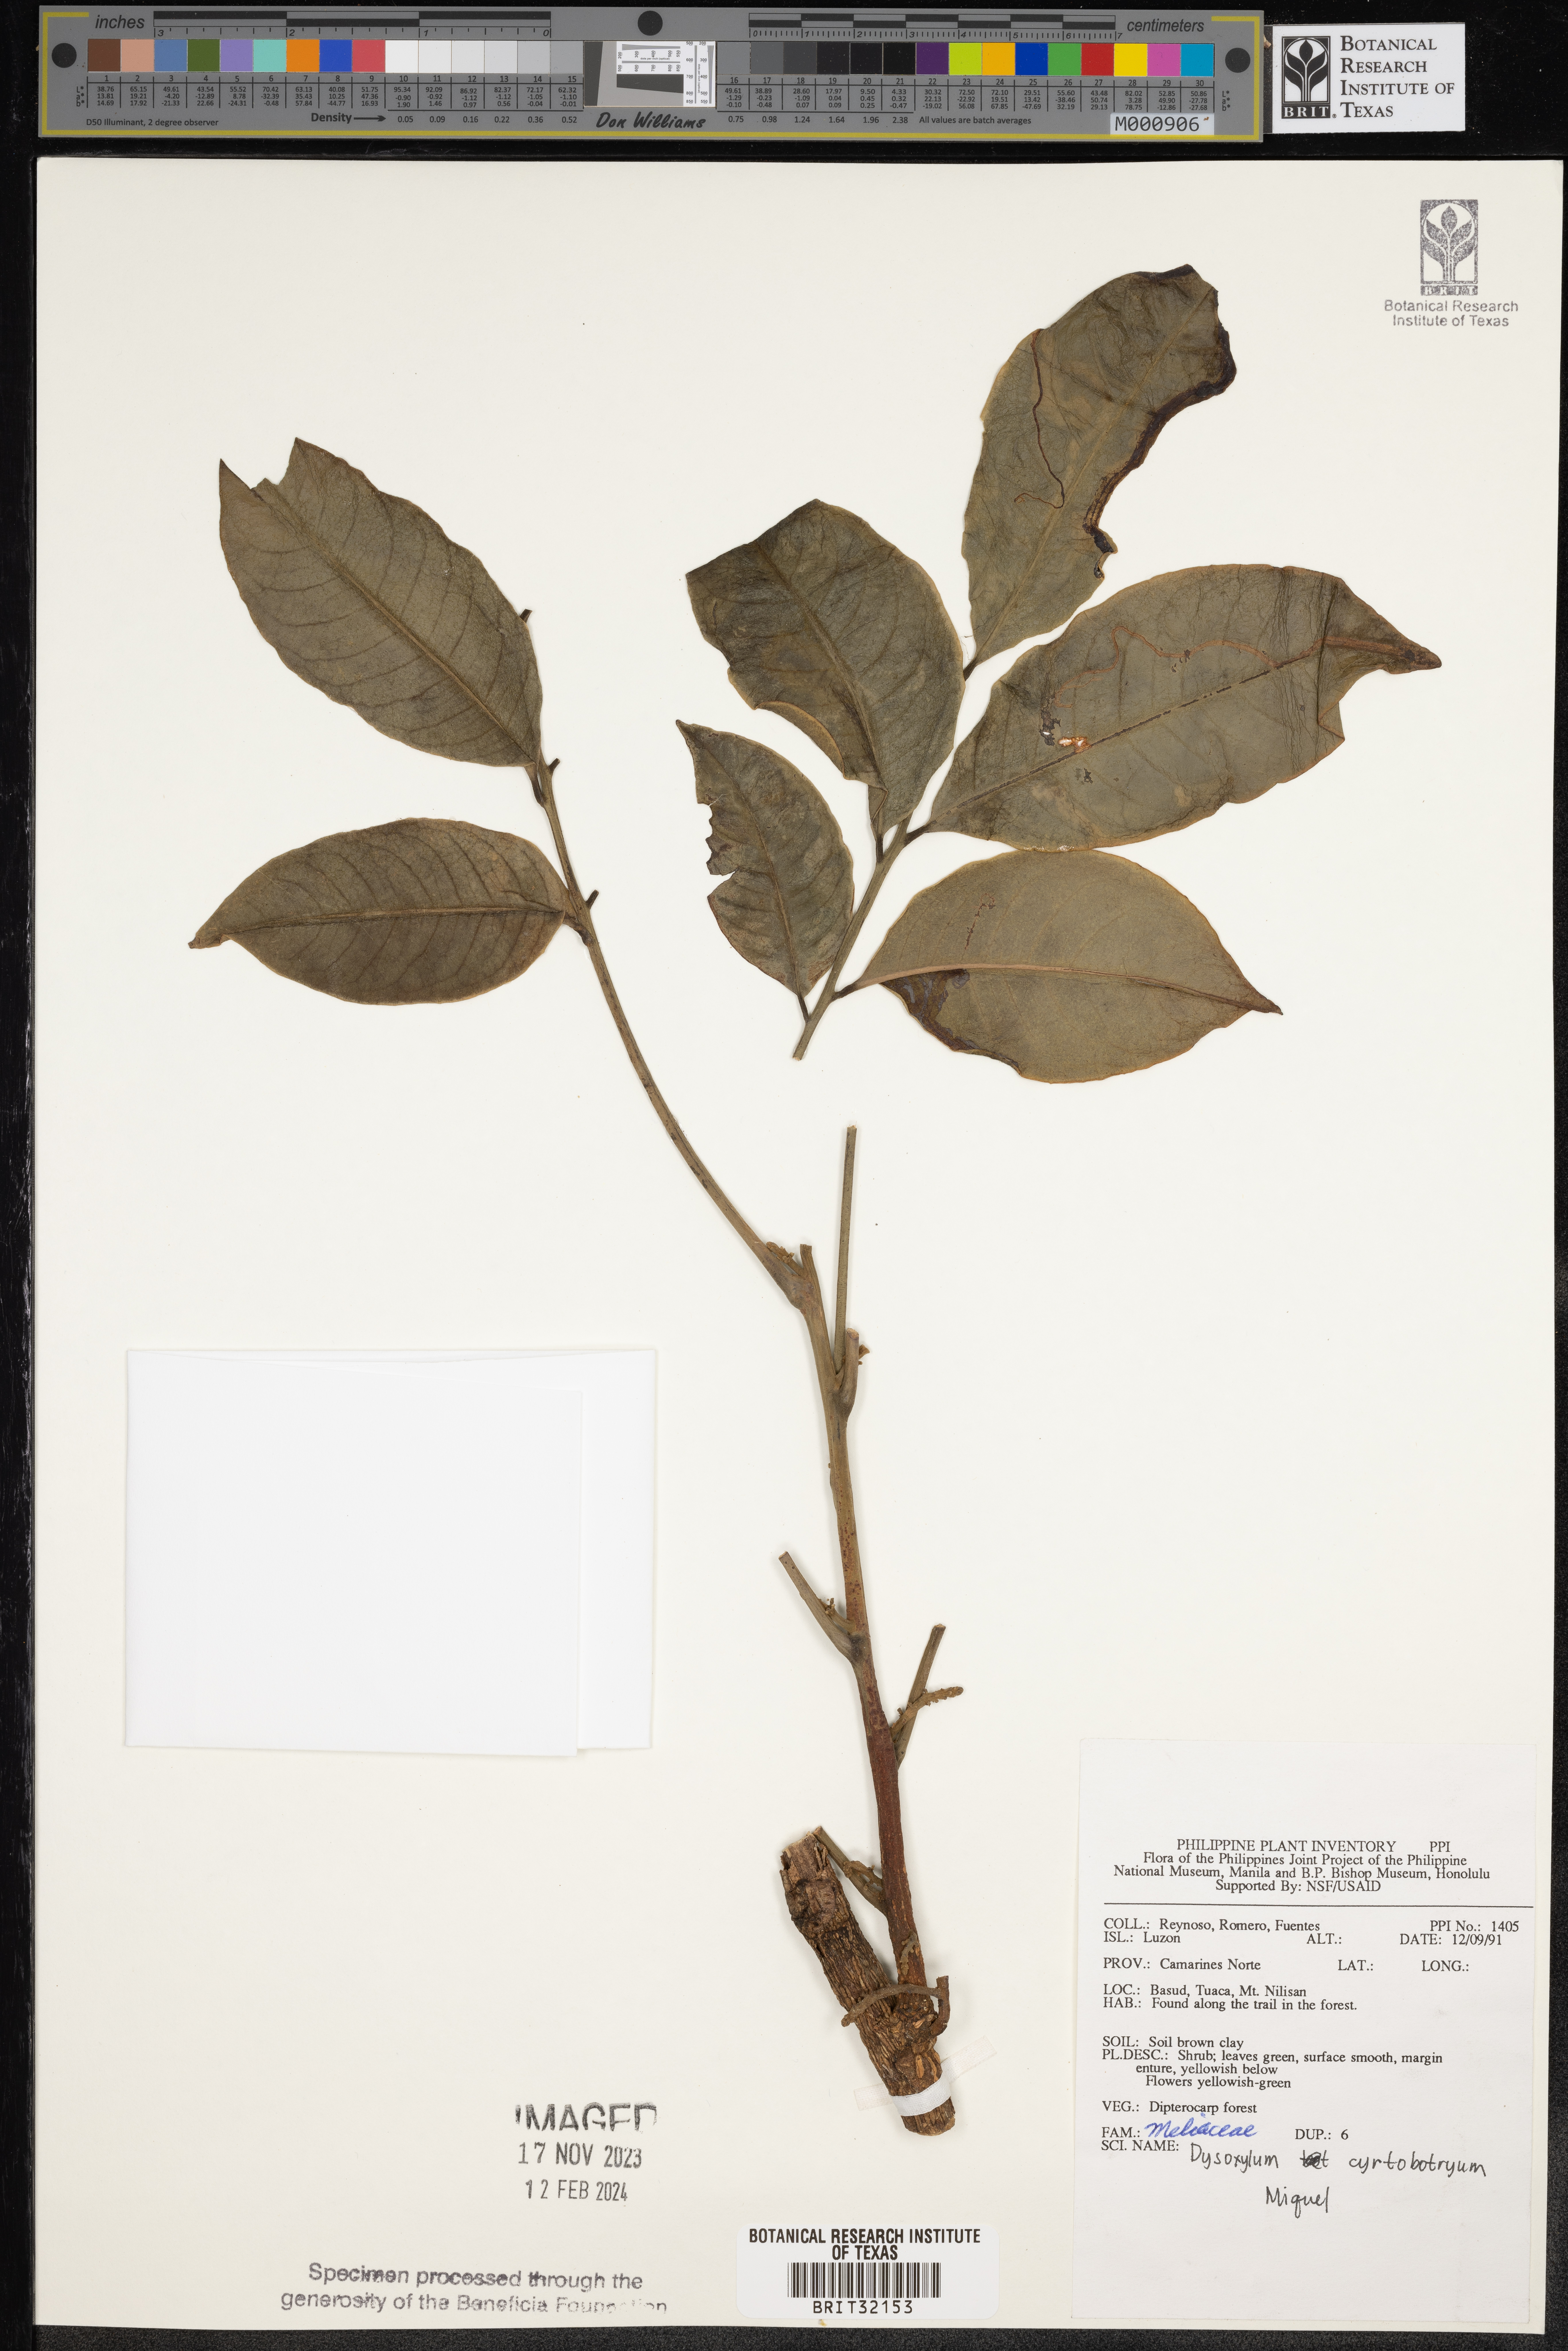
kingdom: Plantae
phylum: Tracheophyta
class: Magnoliopsida
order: Sapindales
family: Meliaceae
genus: Dysoxylum
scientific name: Dysoxylum cyrtobotryum
